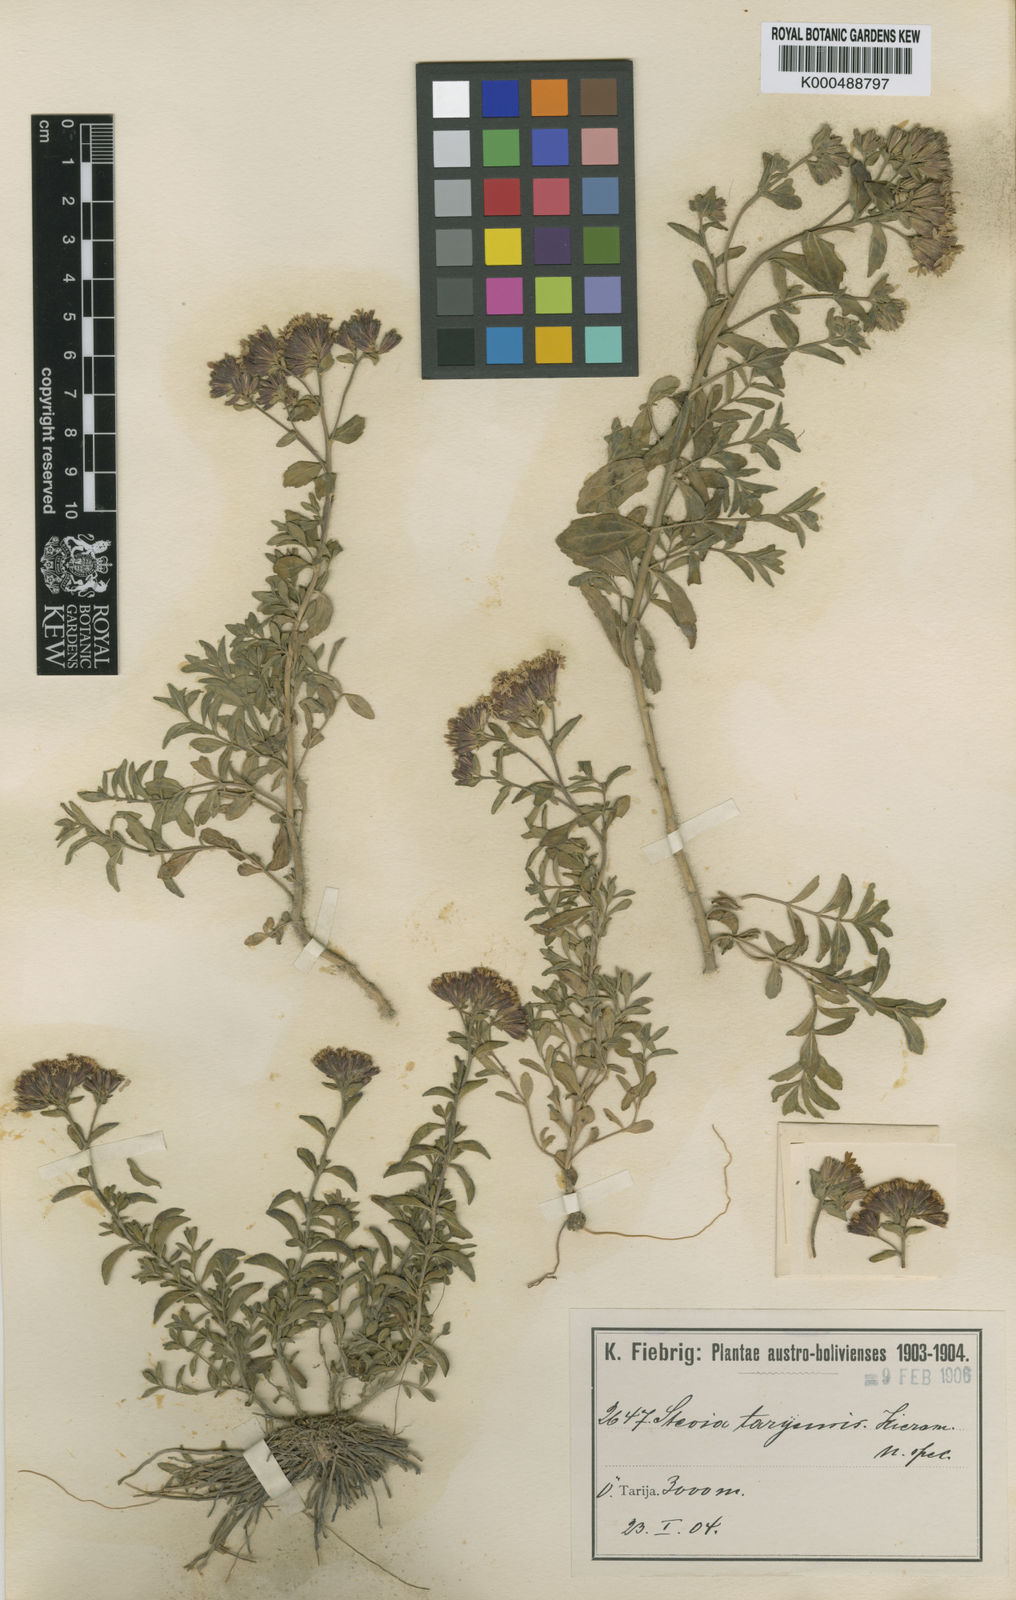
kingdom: Plantae
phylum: Tracheophyta
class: Magnoliopsida
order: Asterales
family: Asteraceae
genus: Stevia
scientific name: Stevia tarijensis
